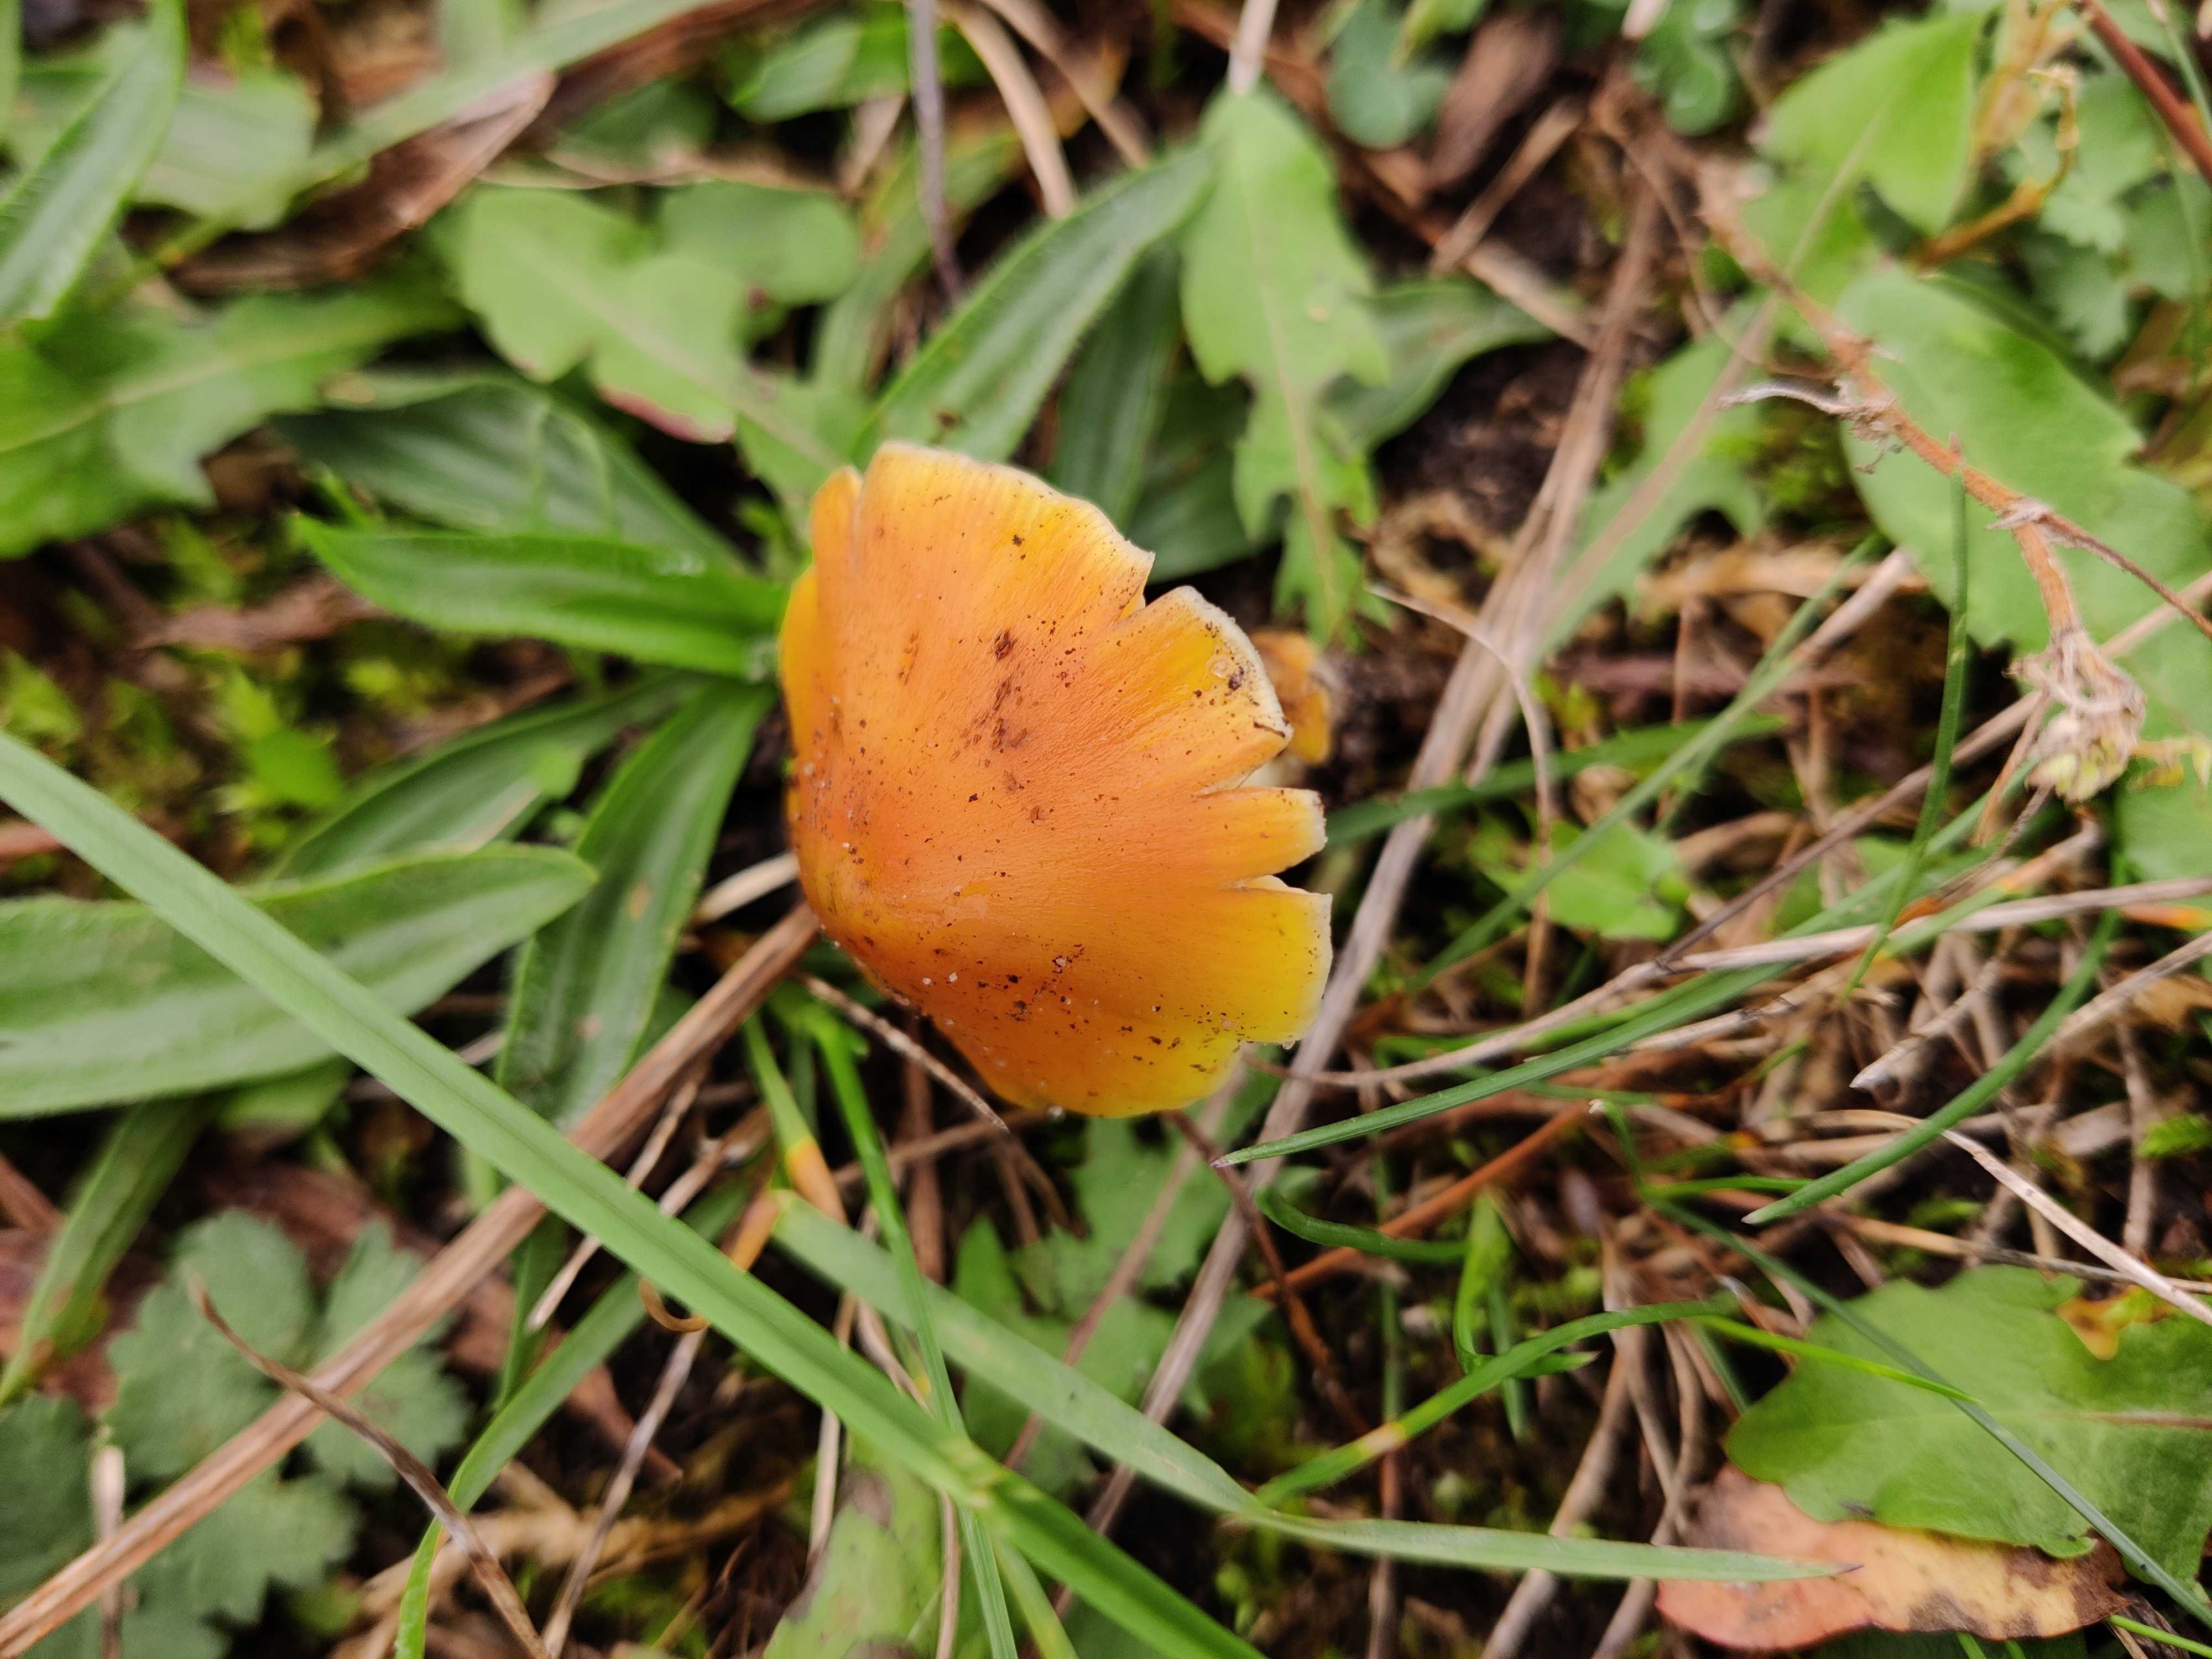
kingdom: Fungi
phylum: Basidiomycota
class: Agaricomycetes
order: Agaricales
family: Hygrophoraceae
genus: Hygrocybe
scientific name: Hygrocybe conica
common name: kegle-vokshat
